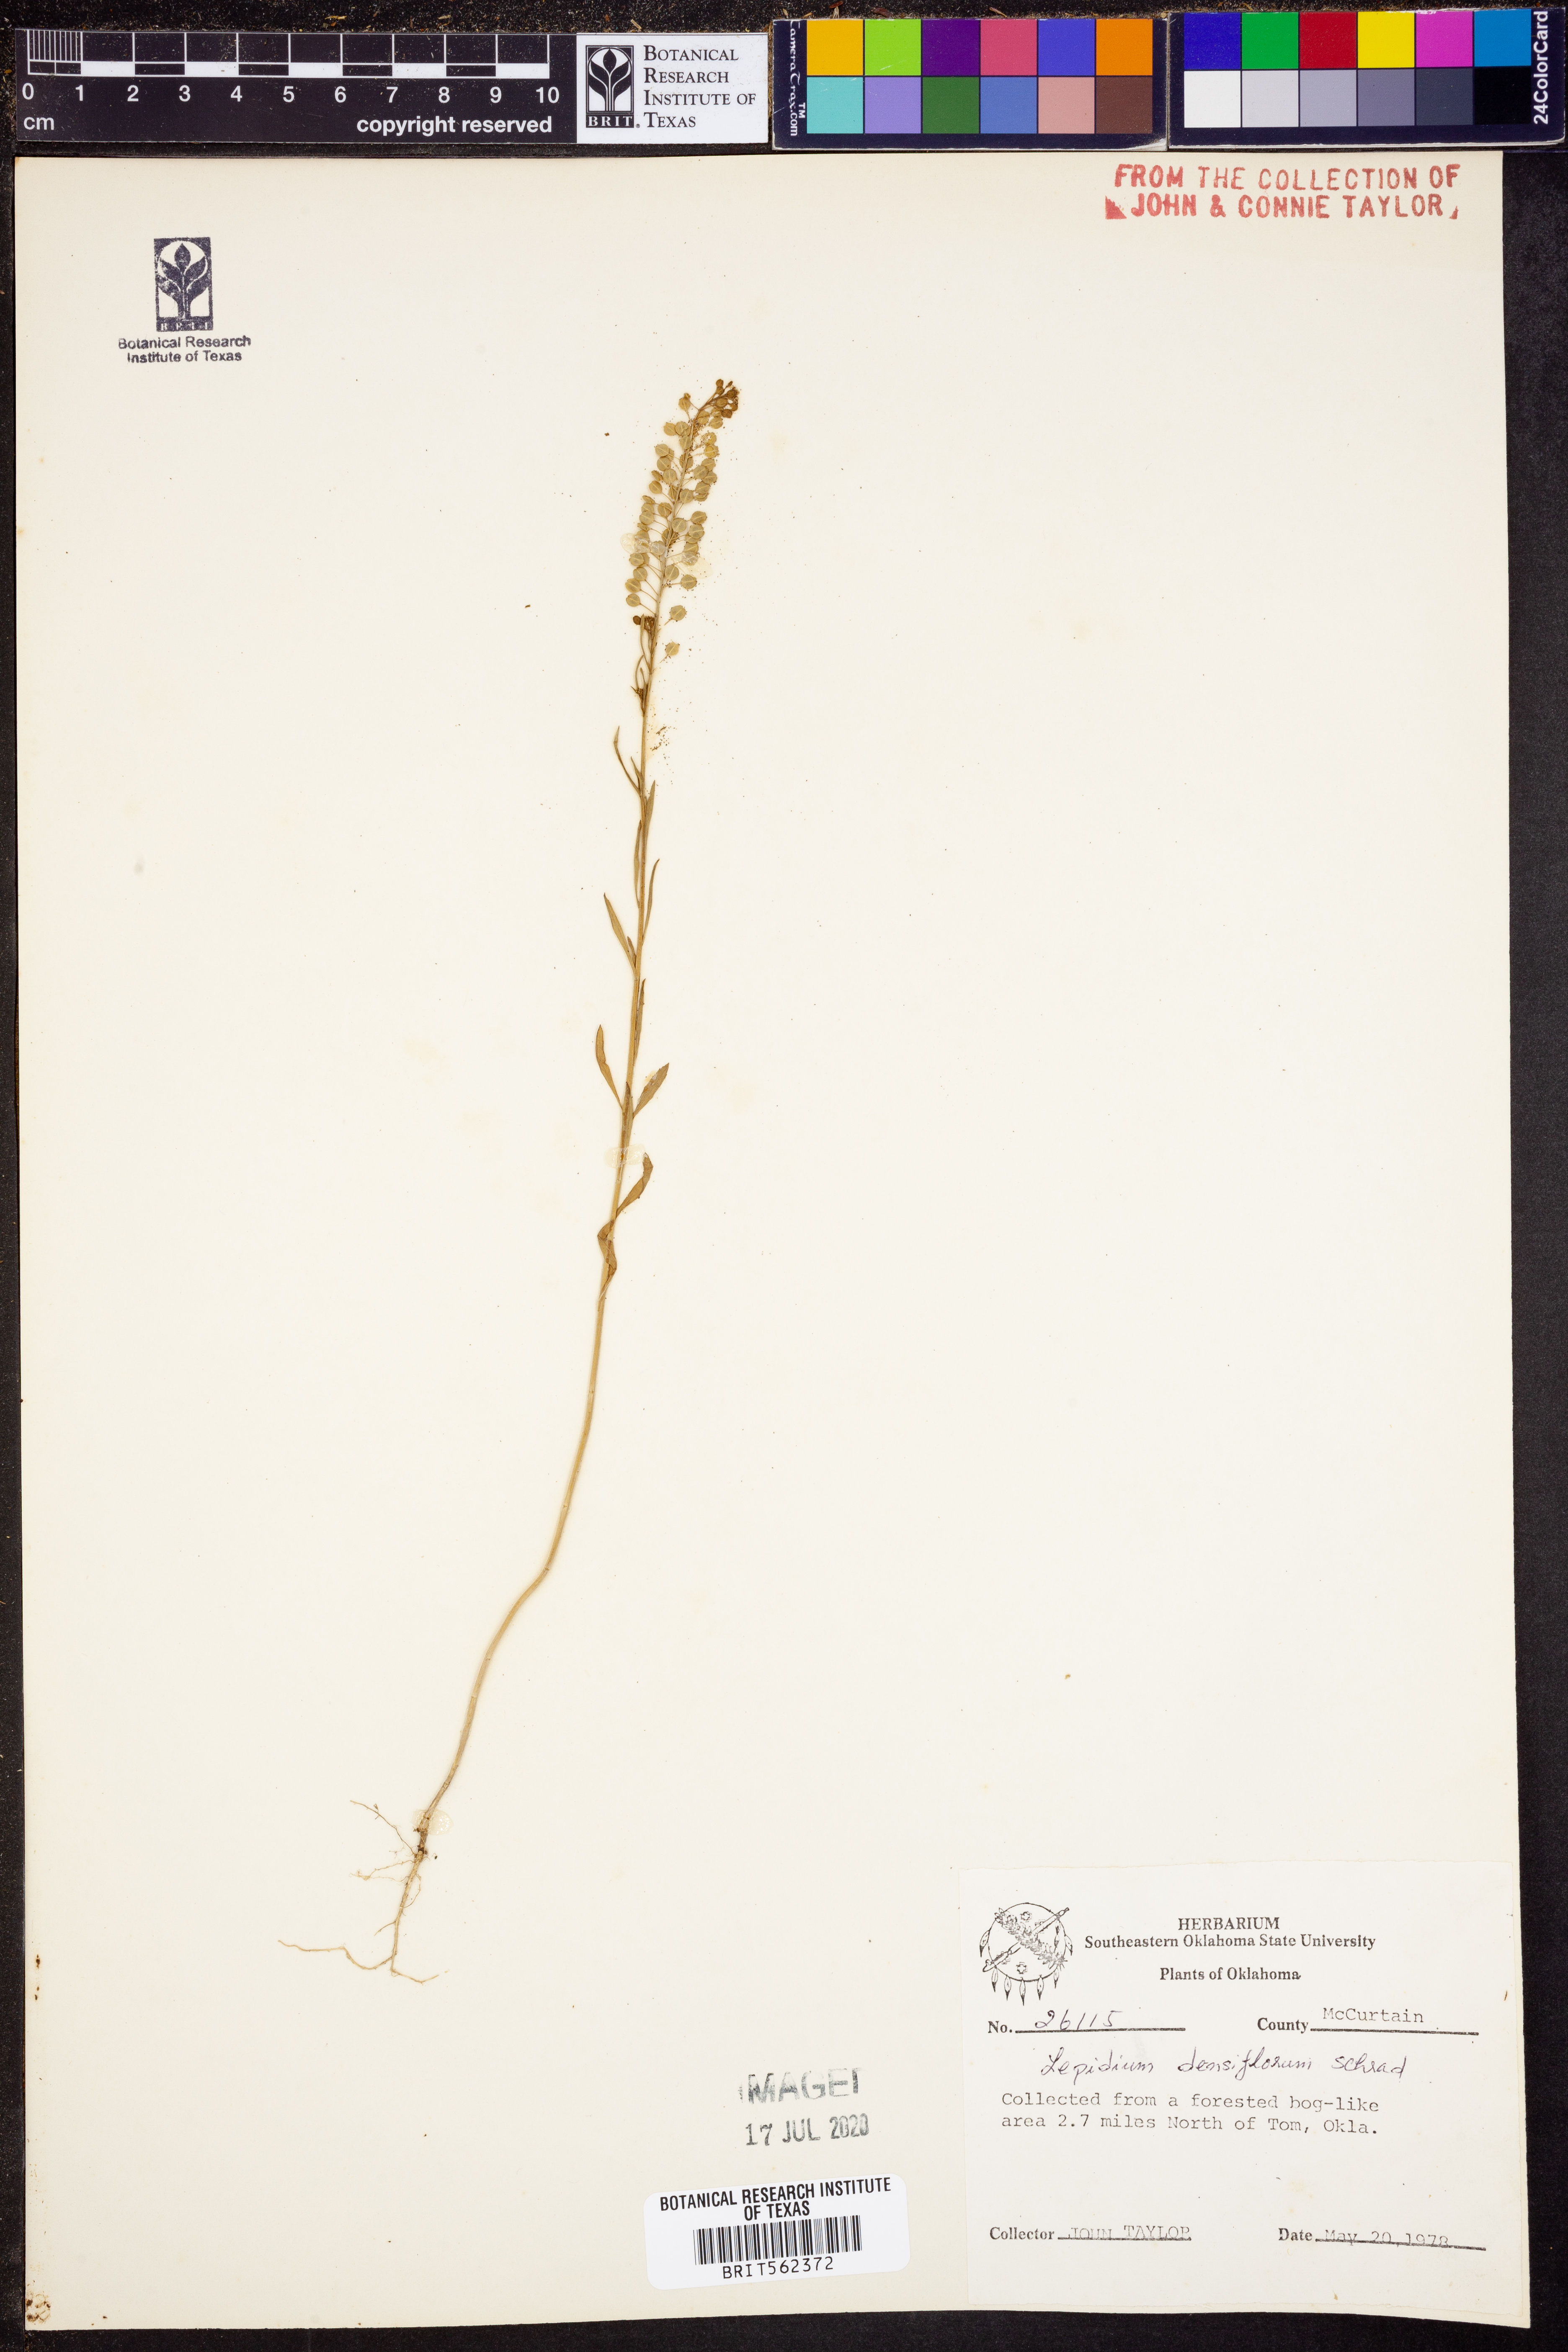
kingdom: Plantae
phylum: Tracheophyta
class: Magnoliopsida
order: Brassicales
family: Brassicaceae
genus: Lepidium
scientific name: Lepidium densiflorum
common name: Miner's pepperwort
